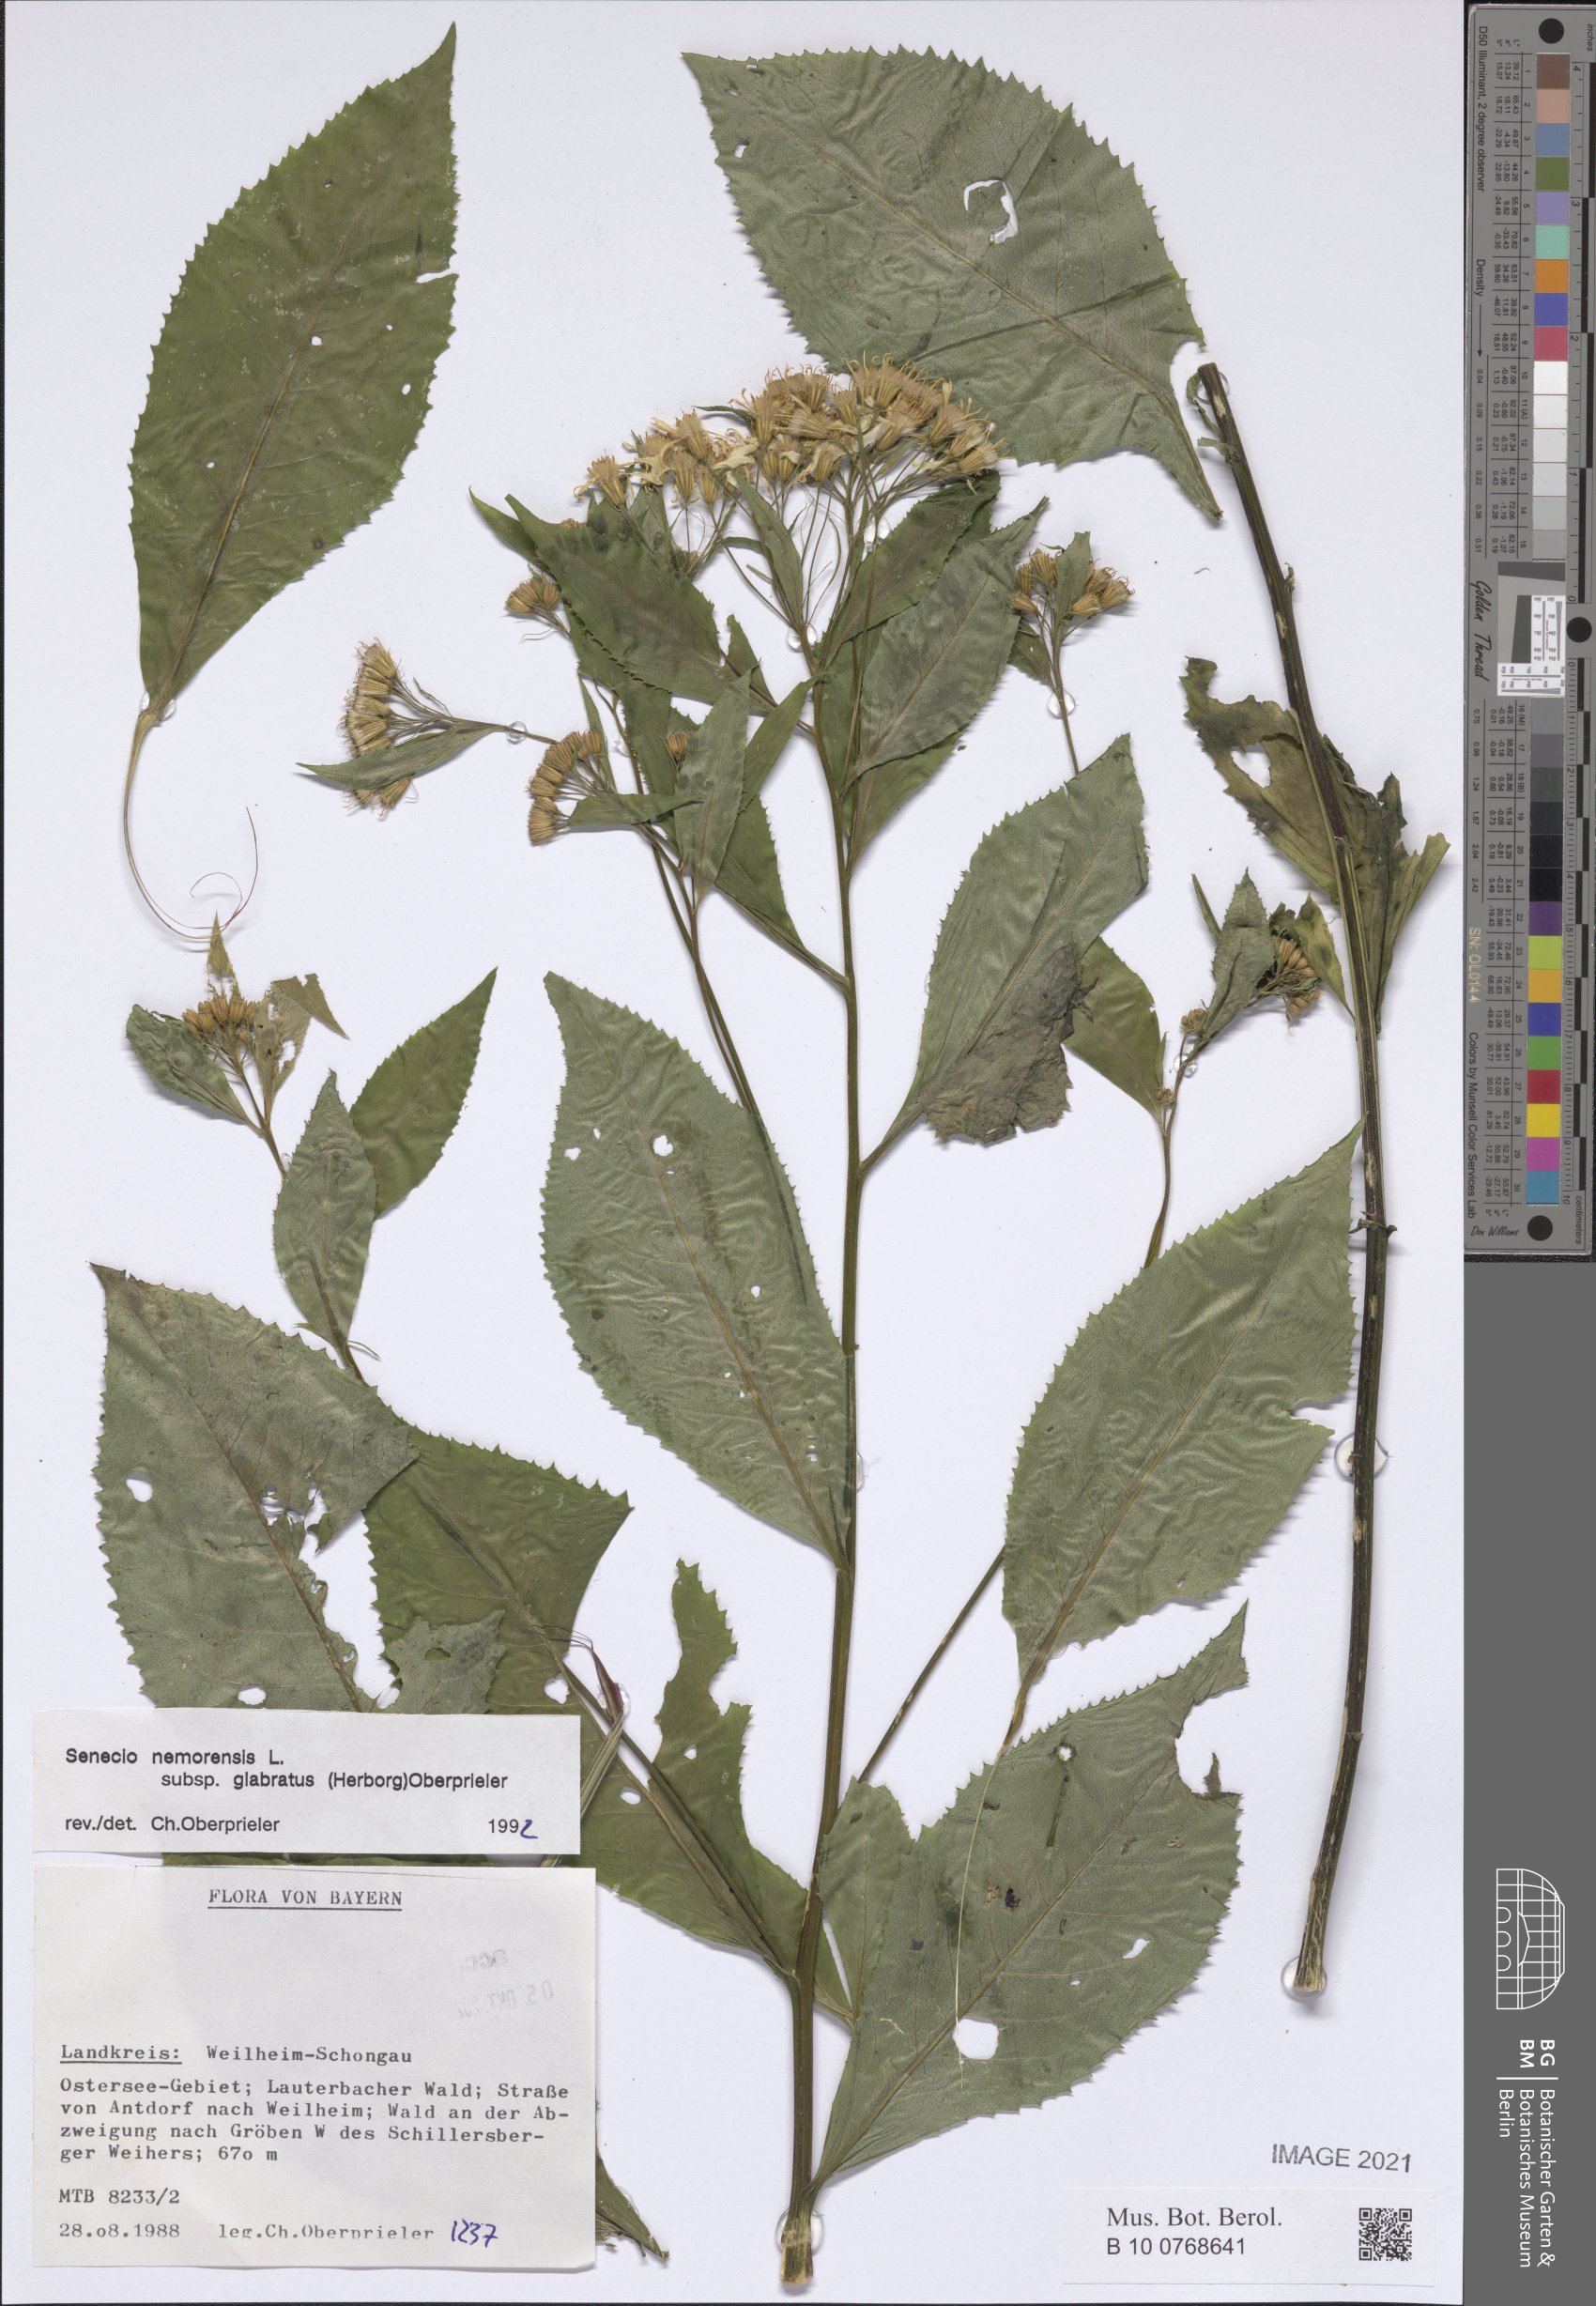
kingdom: Plantae
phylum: Tracheophyta
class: Magnoliopsida
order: Asterales
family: Asteraceae
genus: Senecio
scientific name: Senecio germanicus
